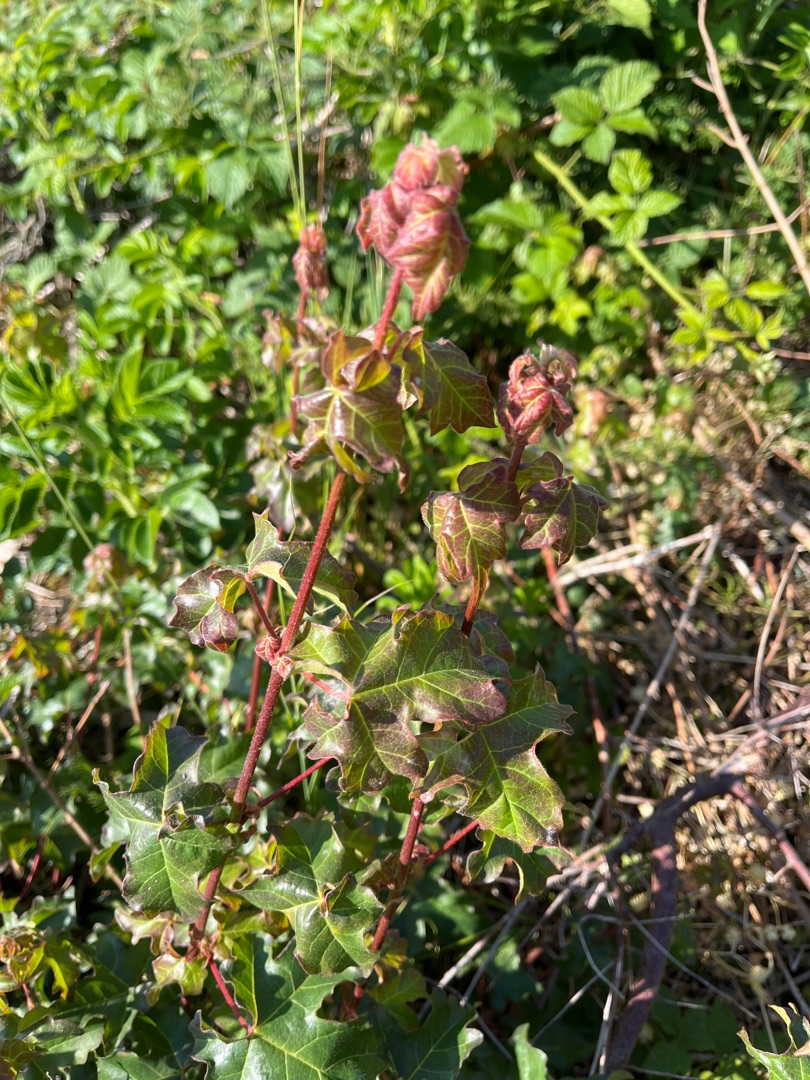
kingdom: Plantae
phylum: Tracheophyta
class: Magnoliopsida
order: Sapindales
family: Sapindaceae
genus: Acer
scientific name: Acer campestre
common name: Navr
